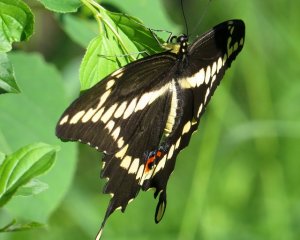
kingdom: Animalia
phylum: Arthropoda
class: Insecta
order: Lepidoptera
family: Papilionidae
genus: Papilio
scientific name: Papilio cresphontes
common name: Eastern Giant Swallowtail
